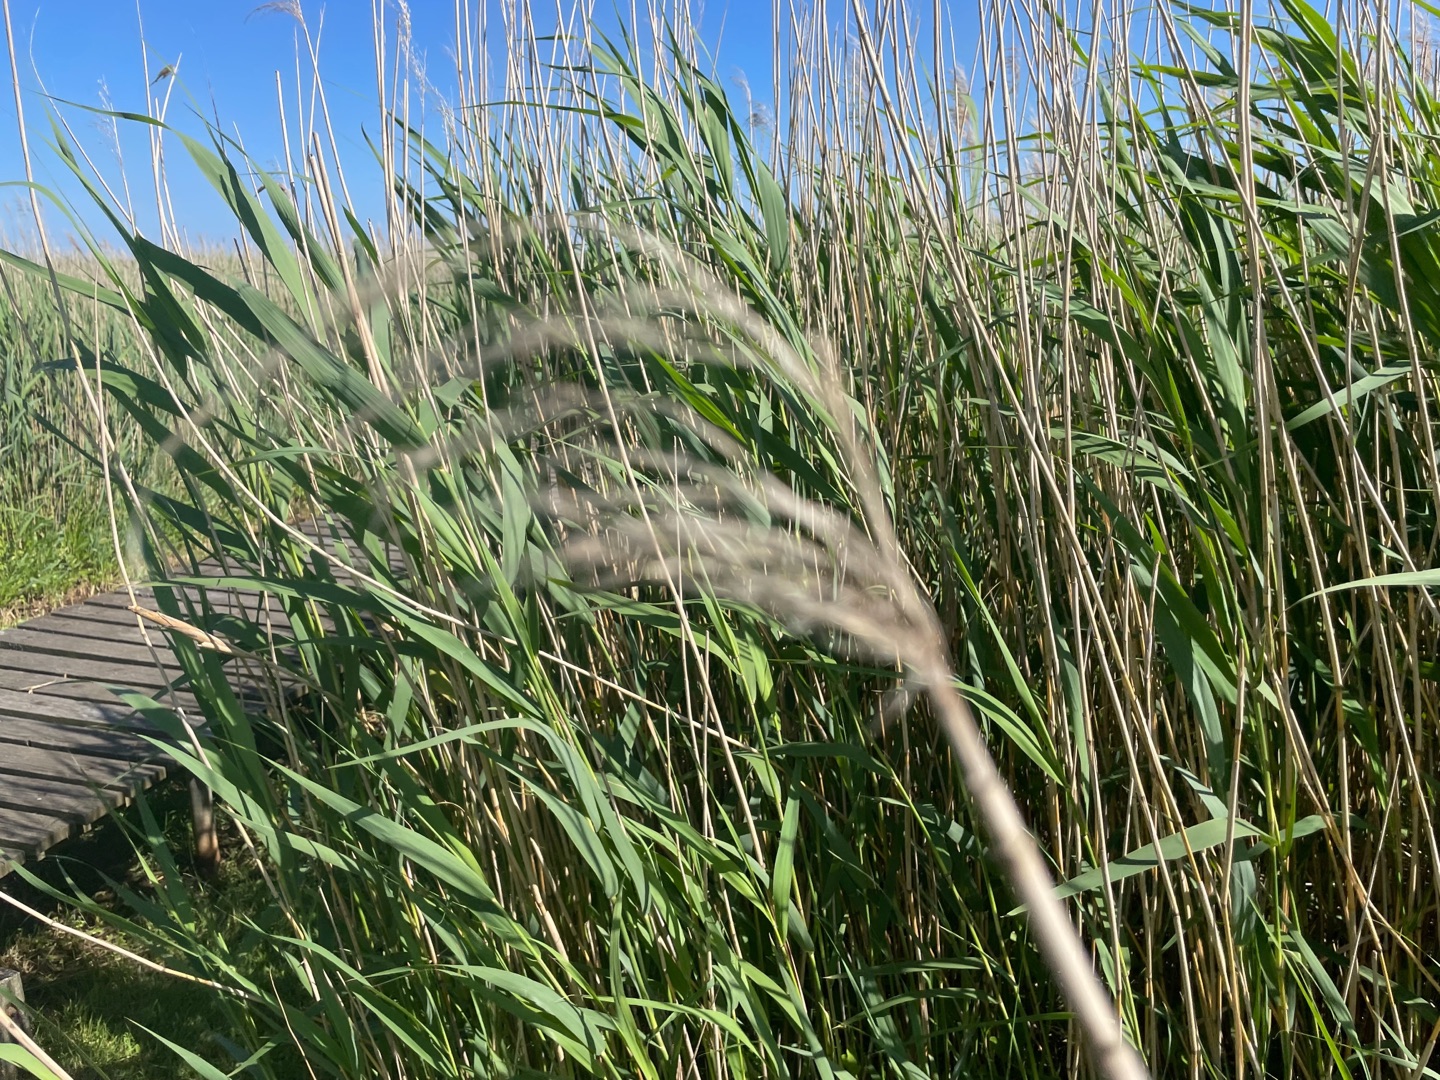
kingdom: Plantae
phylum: Tracheophyta
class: Liliopsida
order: Poales
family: Poaceae
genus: Phragmites
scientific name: Phragmites australis
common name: Tagrør
